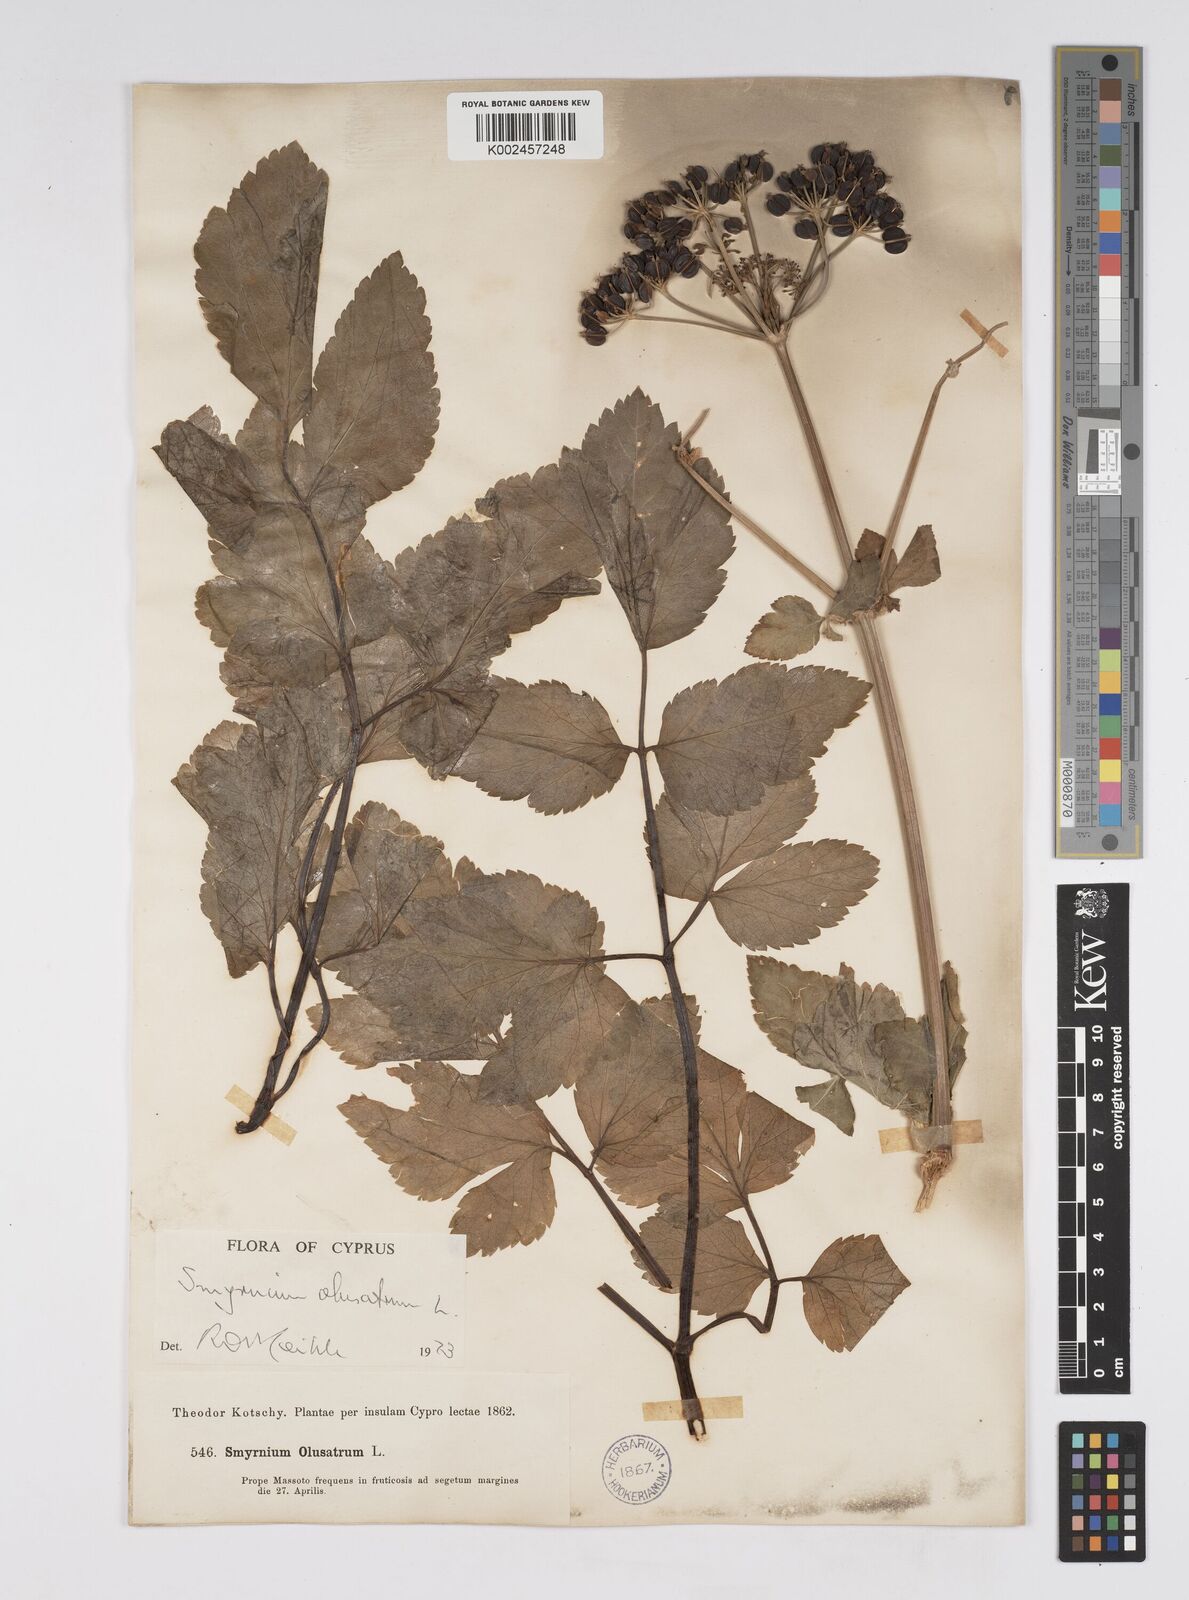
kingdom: Plantae
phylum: Tracheophyta
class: Magnoliopsida
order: Apiales
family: Apiaceae
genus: Smyrnium
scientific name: Smyrnium olusatrum
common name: Alexanders
